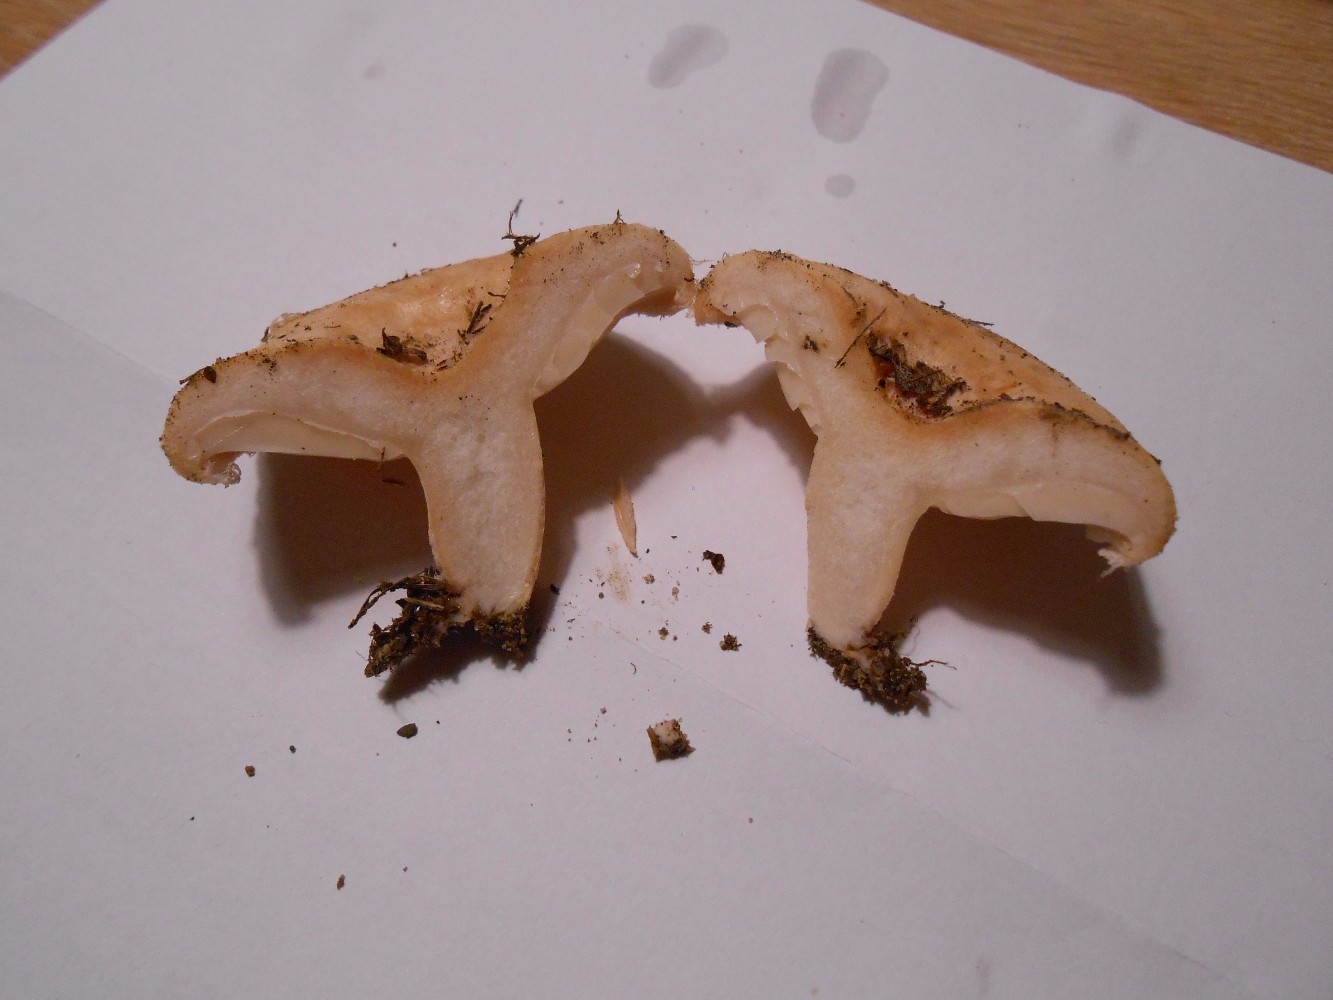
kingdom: Fungi
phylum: Basidiomycota
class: Agaricomycetes
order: Russulales
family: Russulaceae
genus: Lactarius
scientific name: Lactarius pubescens
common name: dunet mælkehat
